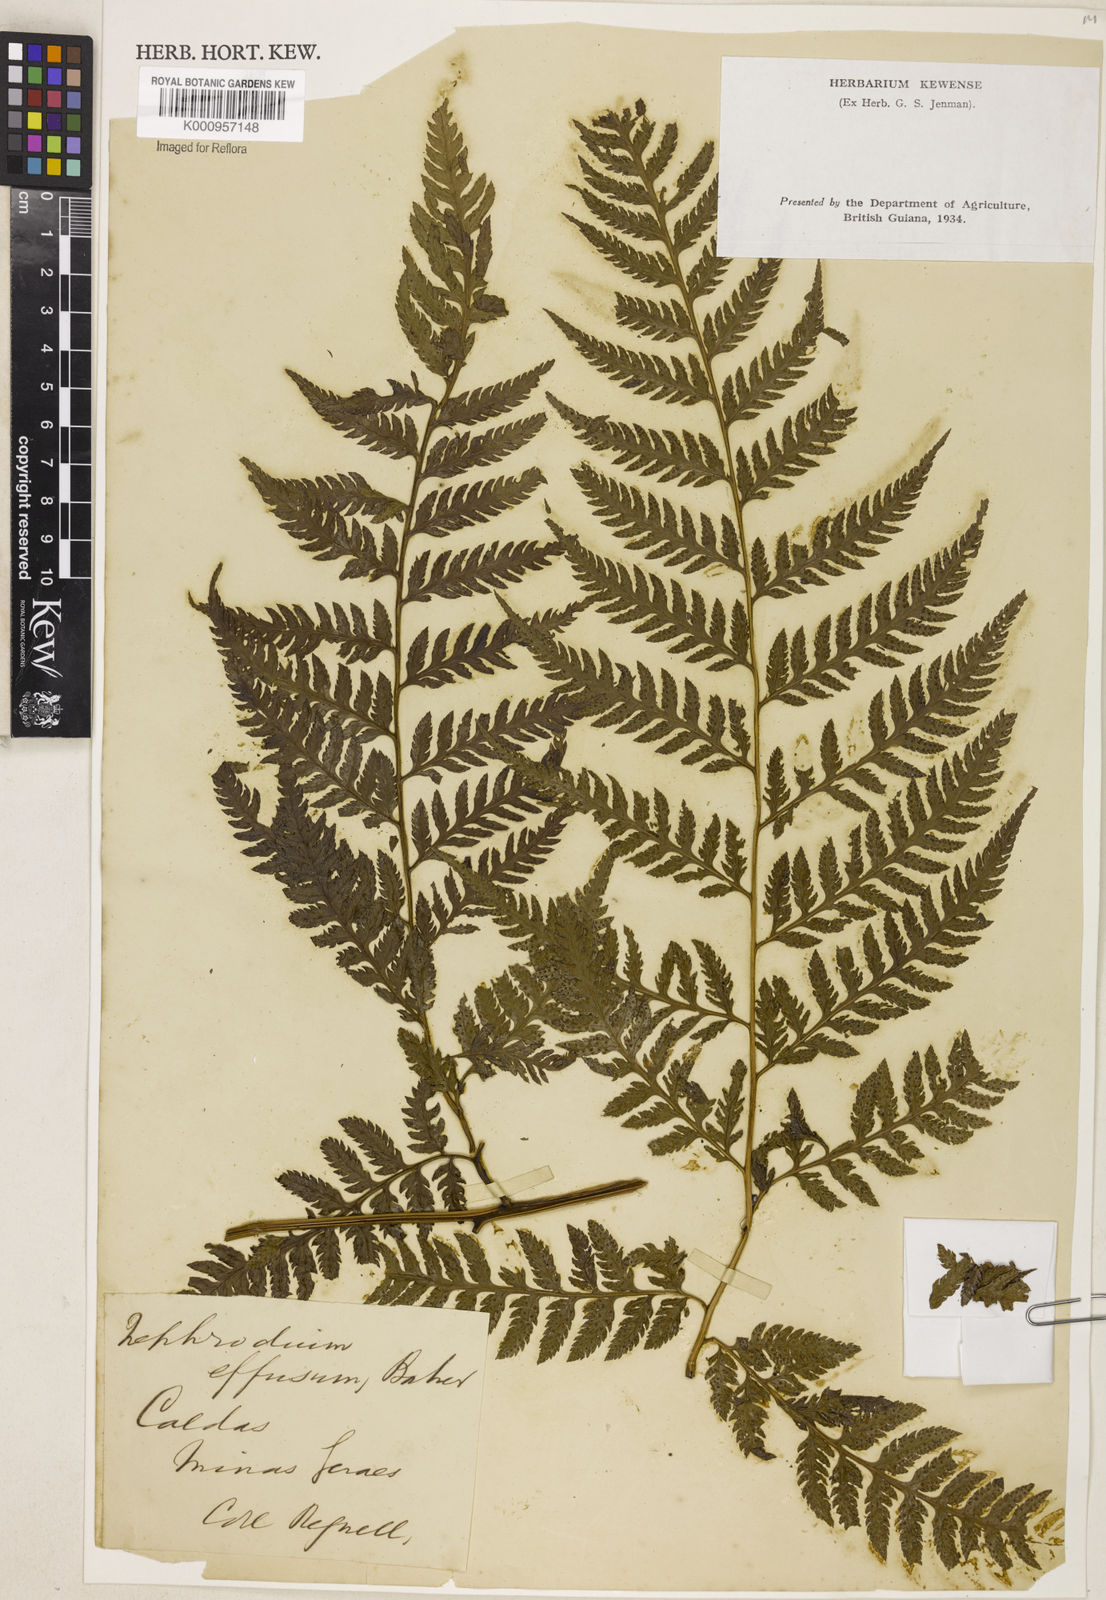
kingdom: Plantae
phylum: Tracheophyta
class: Polypodiopsida
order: Polypodiales
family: Dryopteridaceae
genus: Parapolystichum
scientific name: Parapolystichum effusum
